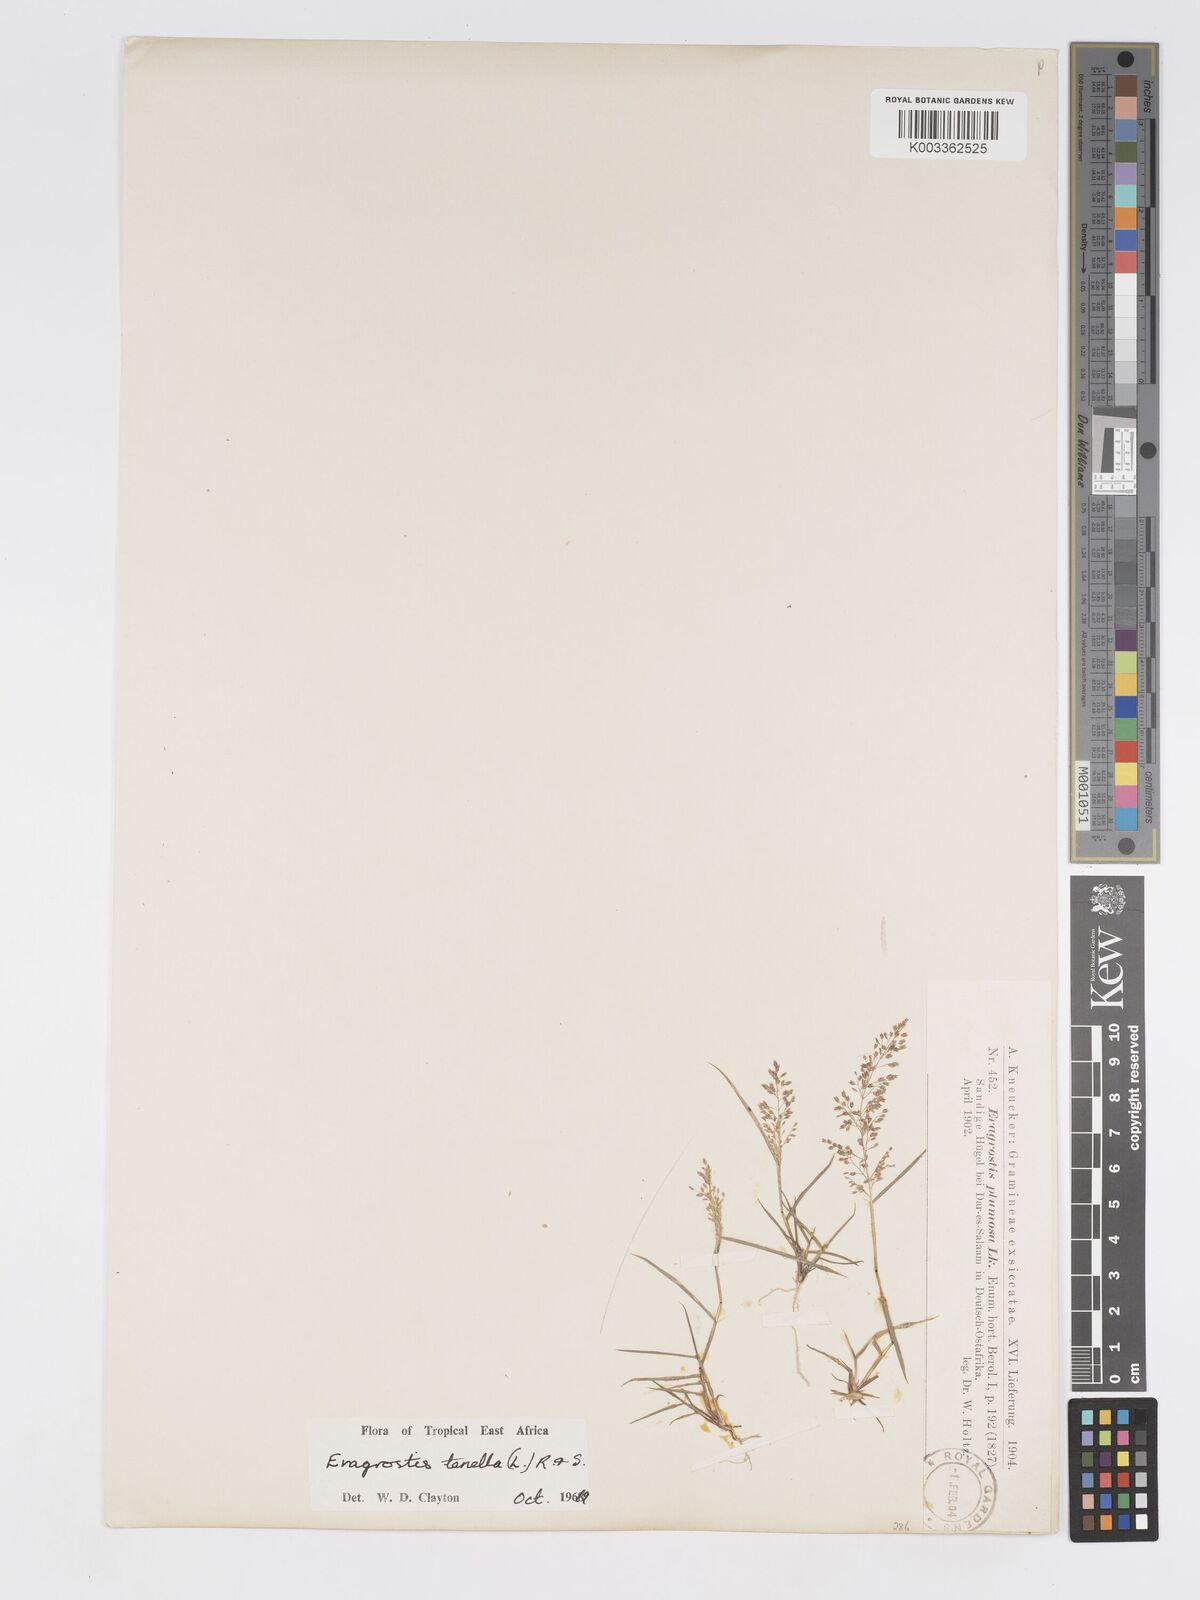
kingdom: Plantae
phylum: Tracheophyta
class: Liliopsida
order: Poales
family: Poaceae
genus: Eragrostis
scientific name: Eragrostis tenella
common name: Japanese lovegrass
